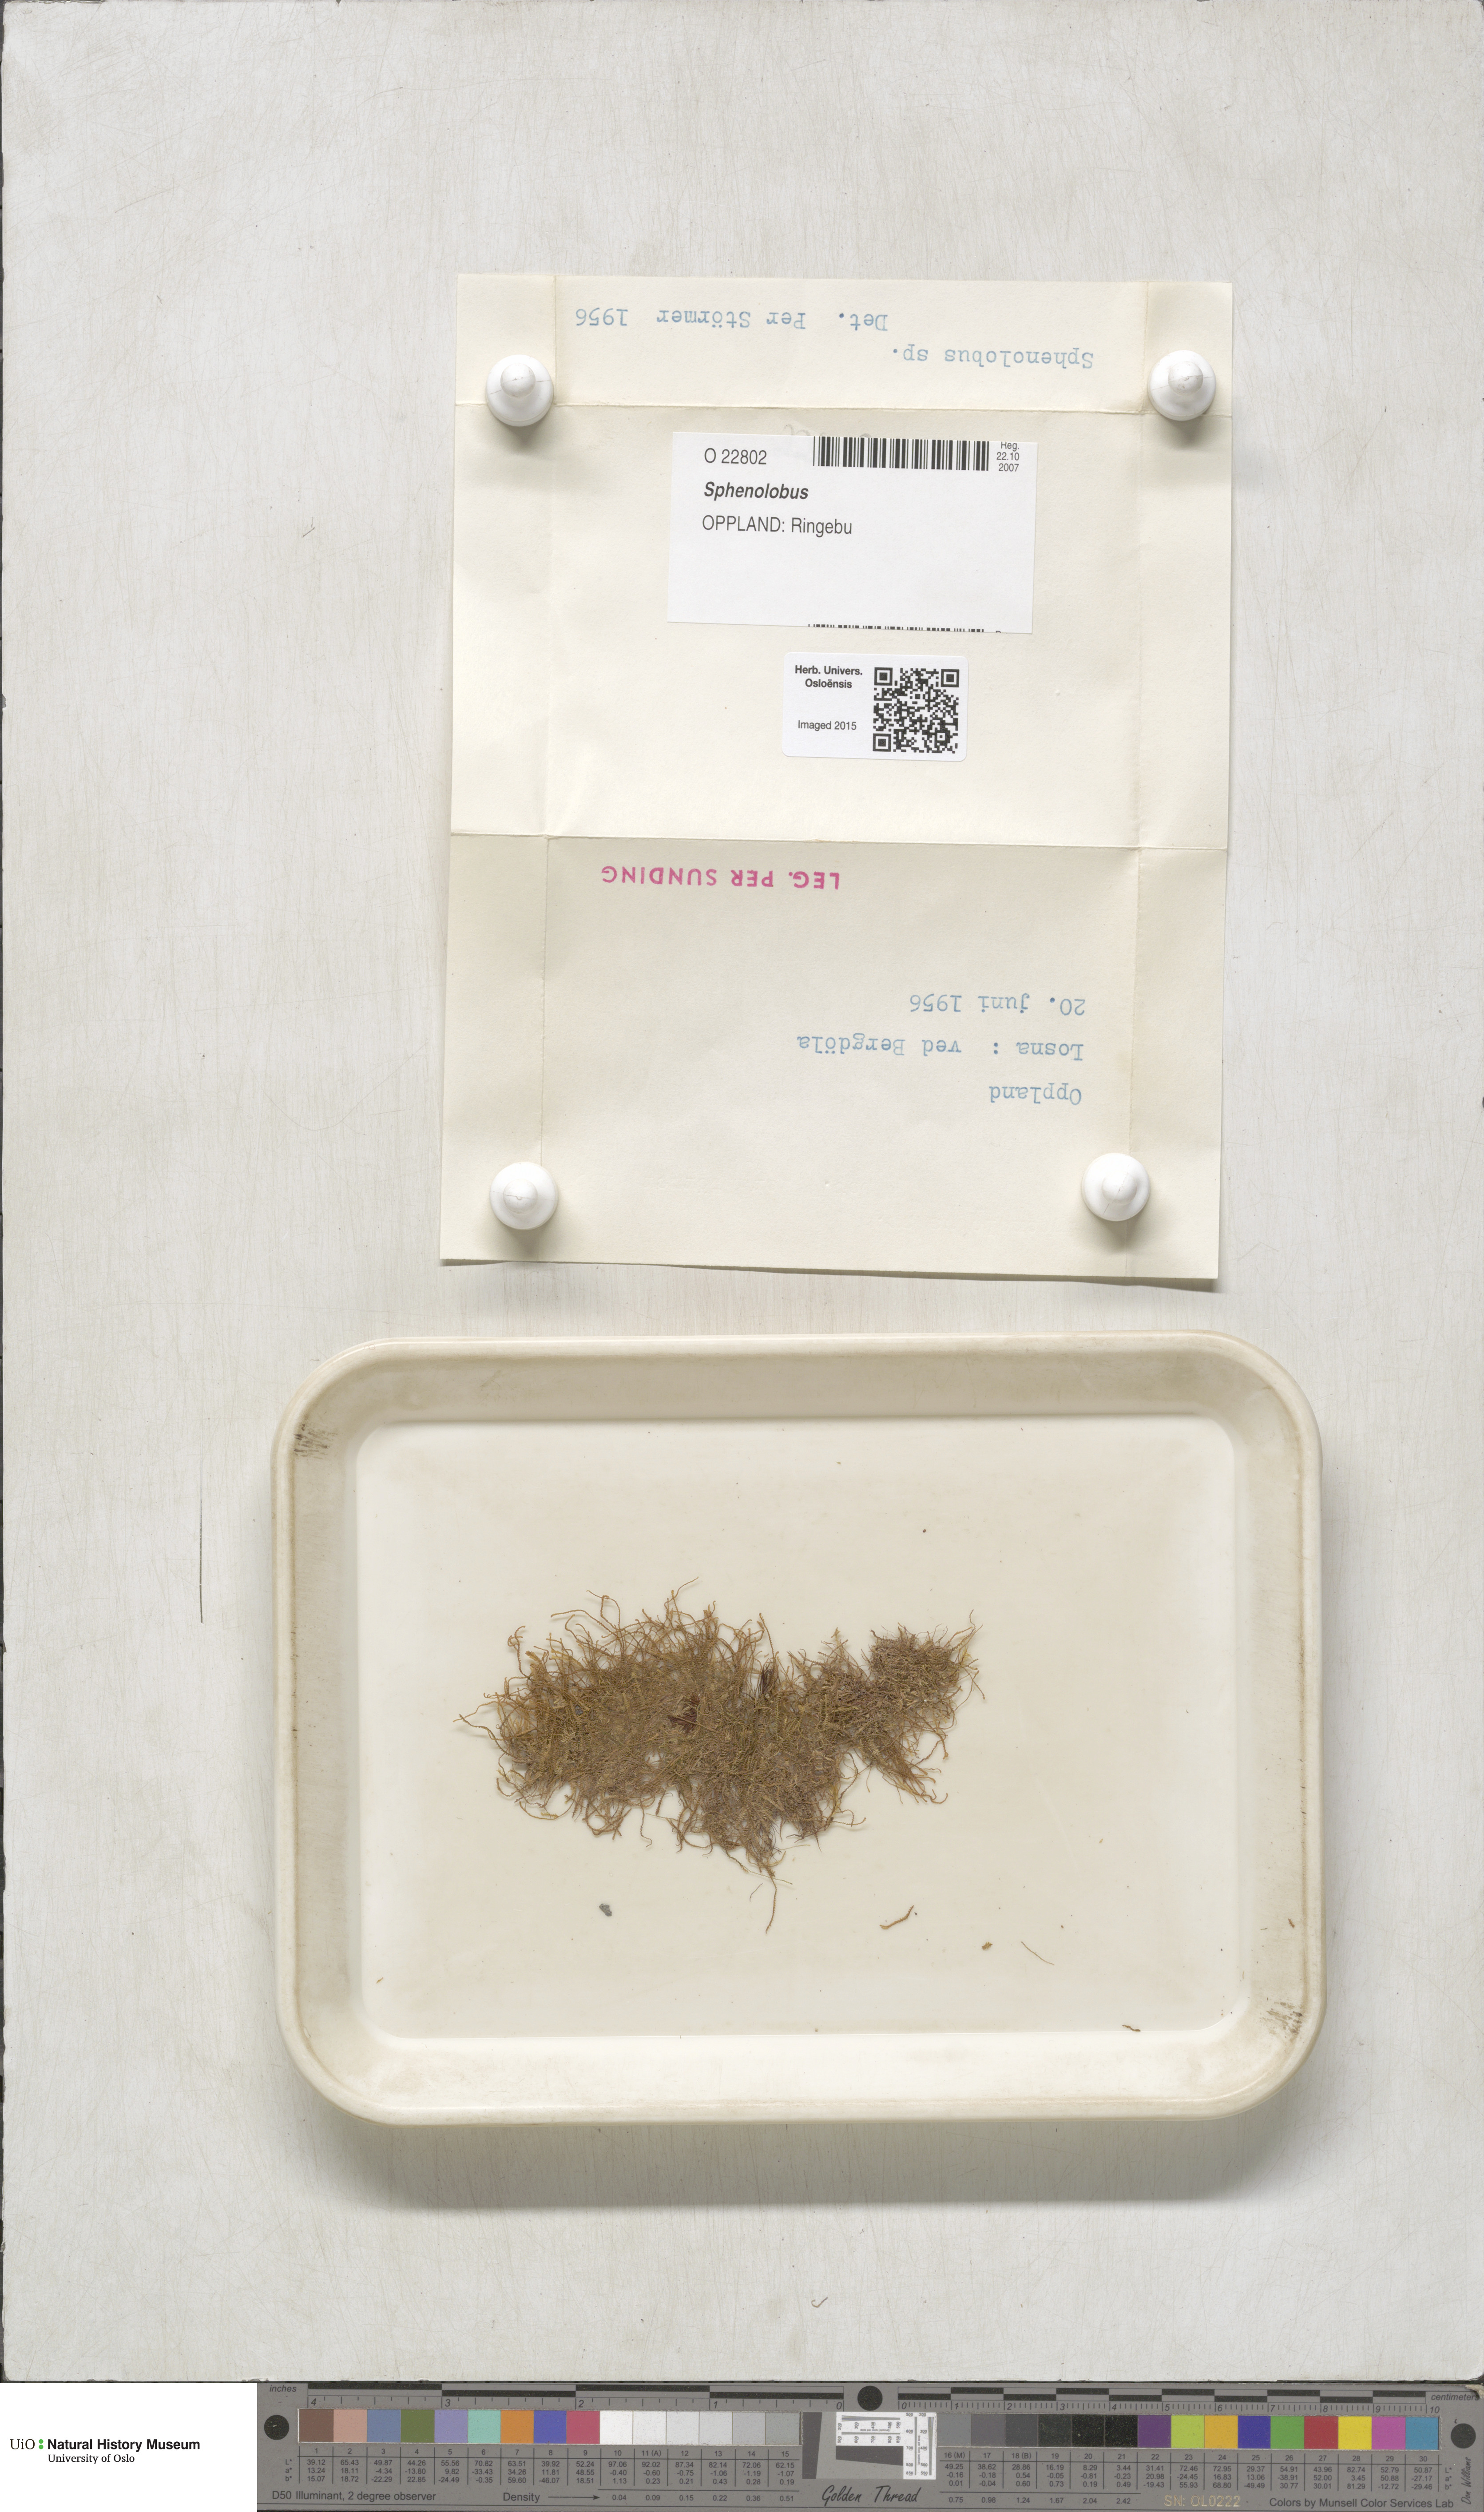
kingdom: Plantae
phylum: Marchantiophyta
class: Jungermanniopsida
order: Jungermanniales
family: Anastrophyllaceae
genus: Sphenolobus
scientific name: Sphenolobus
